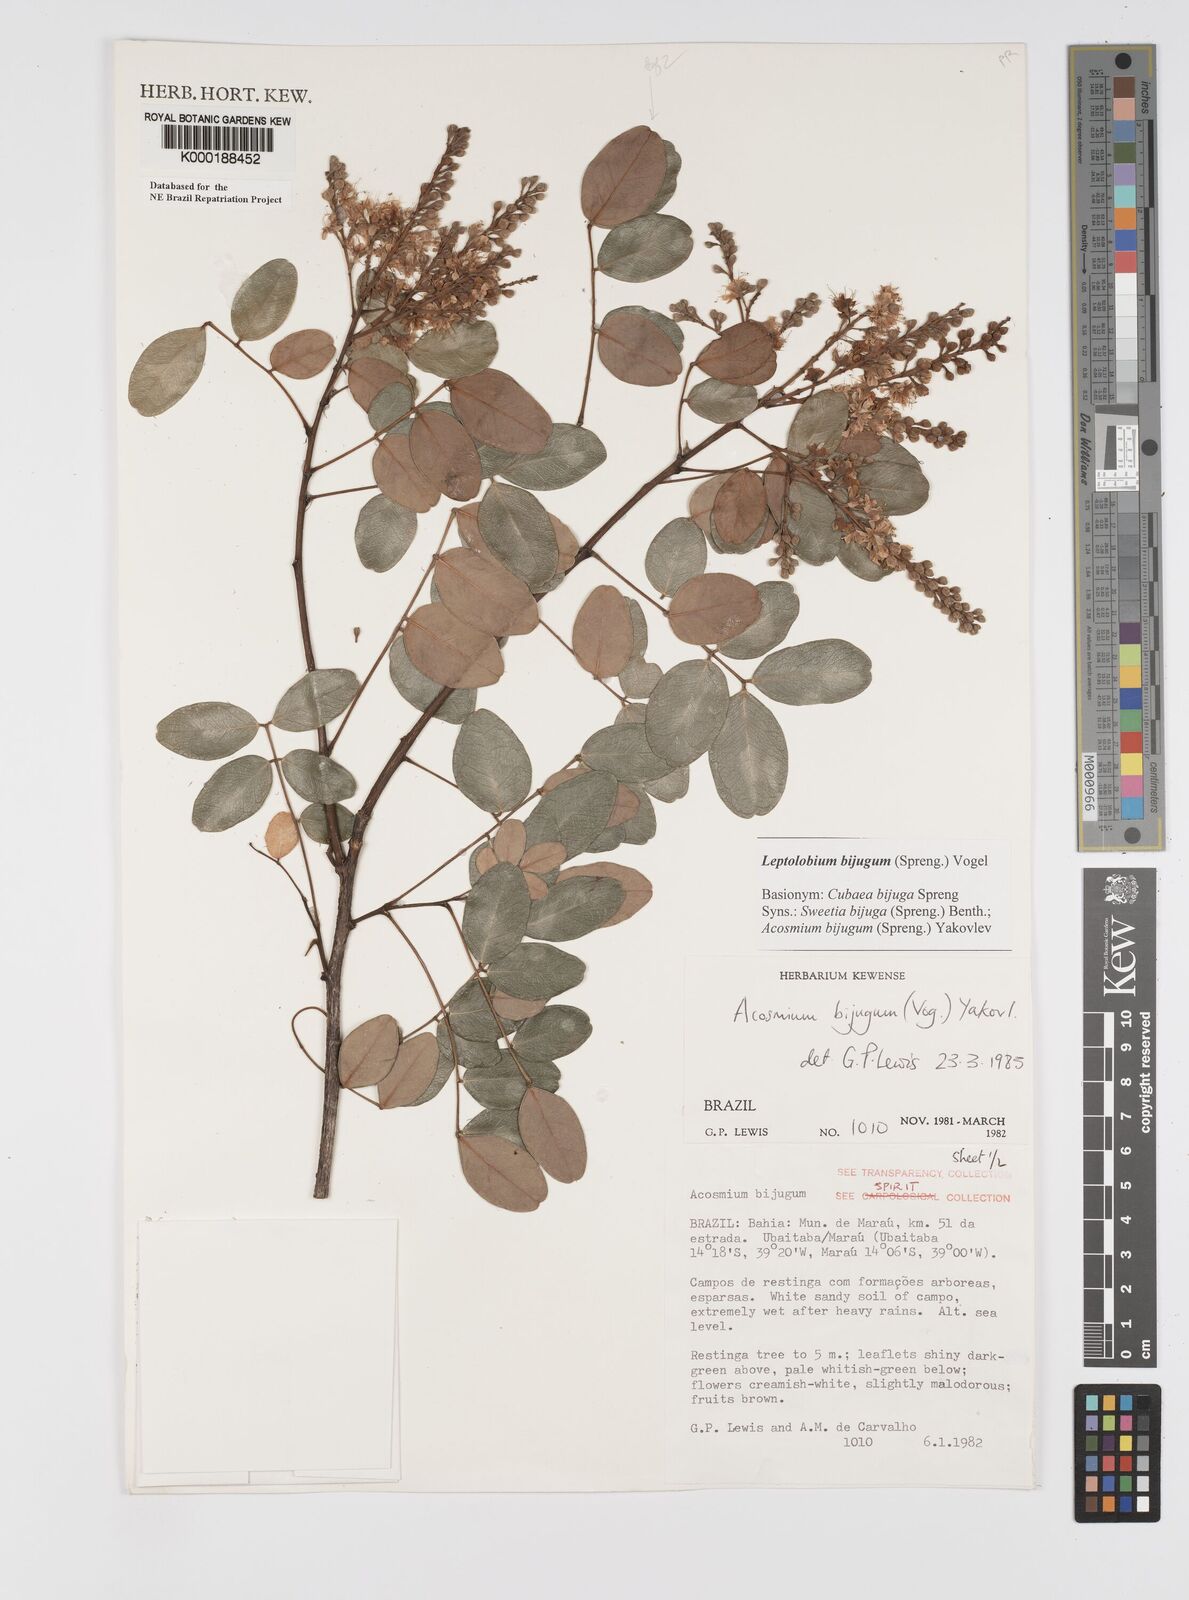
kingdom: Plantae
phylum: Tracheophyta
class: Magnoliopsida
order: Fabales
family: Fabaceae
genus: Leptolobium
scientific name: Leptolobium bijugum
